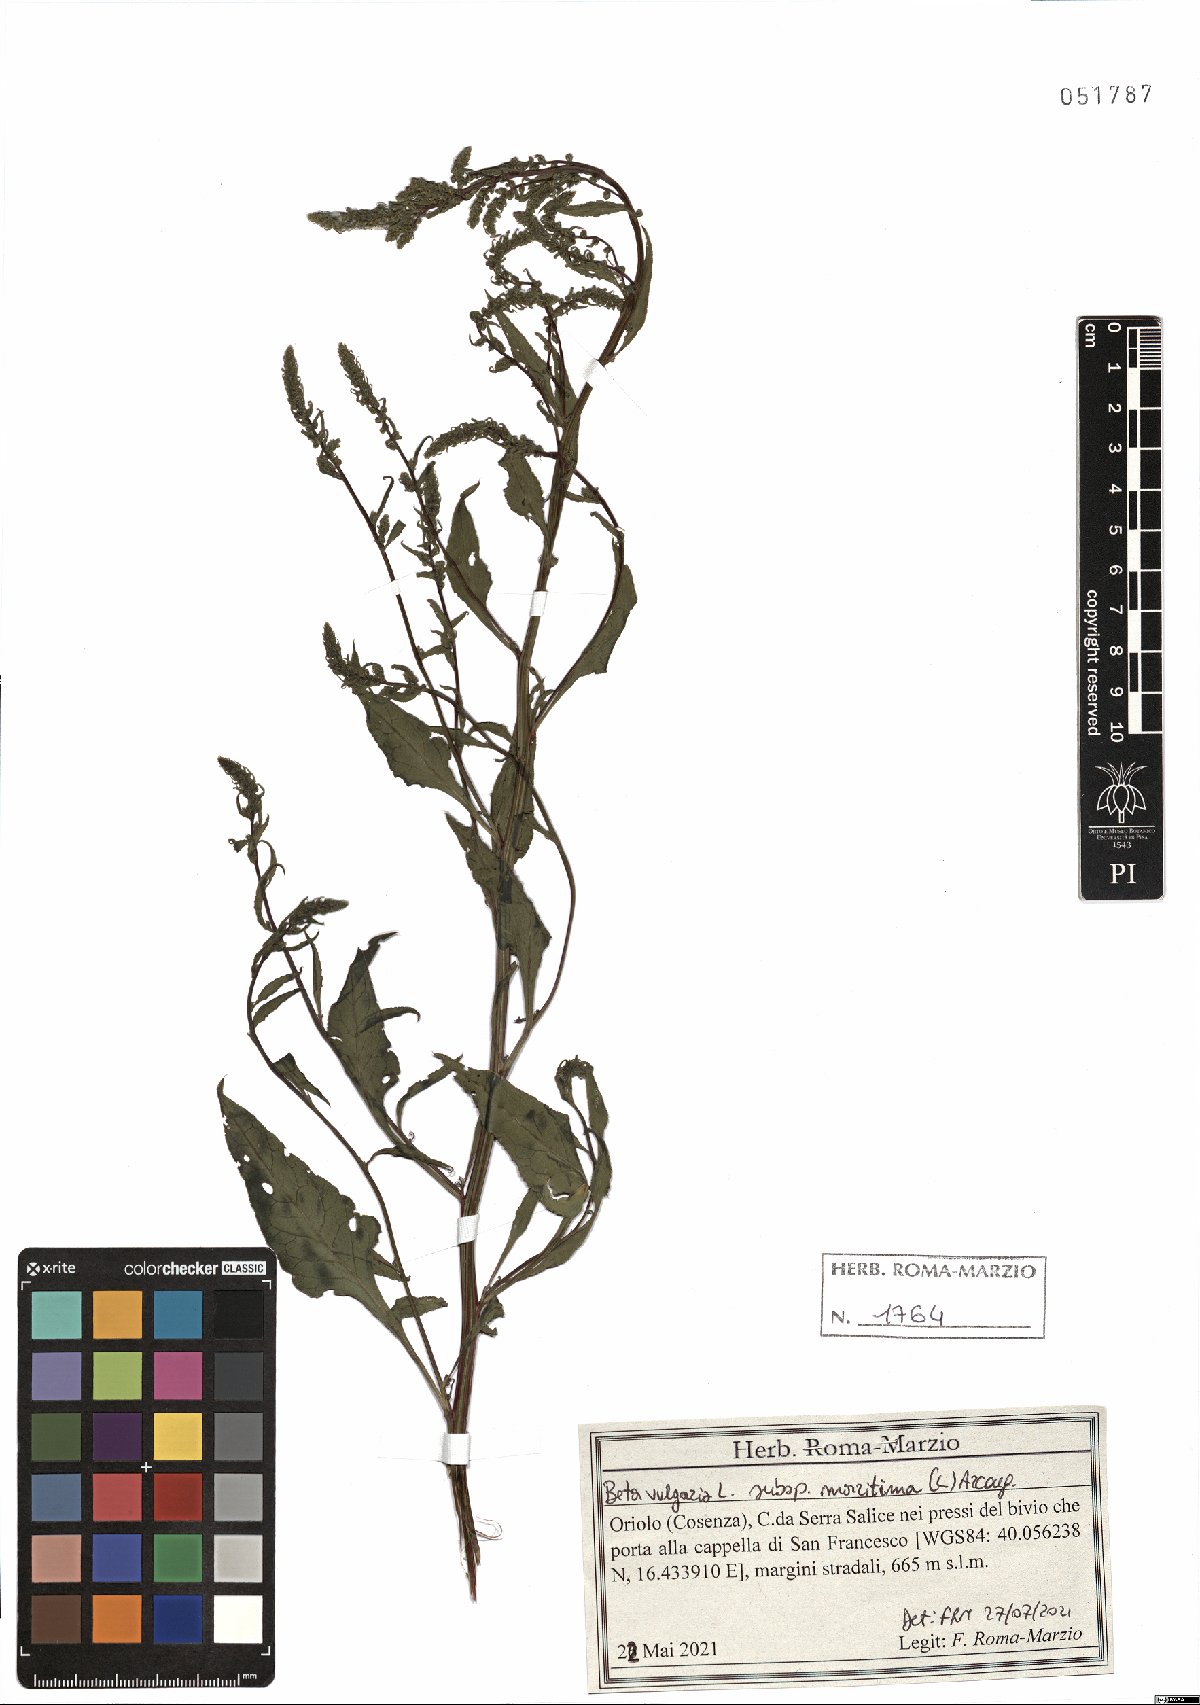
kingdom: Plantae
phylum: Tracheophyta
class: Magnoliopsida
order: Caryophyllales
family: Amaranthaceae
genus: Beta
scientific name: Beta maritima
